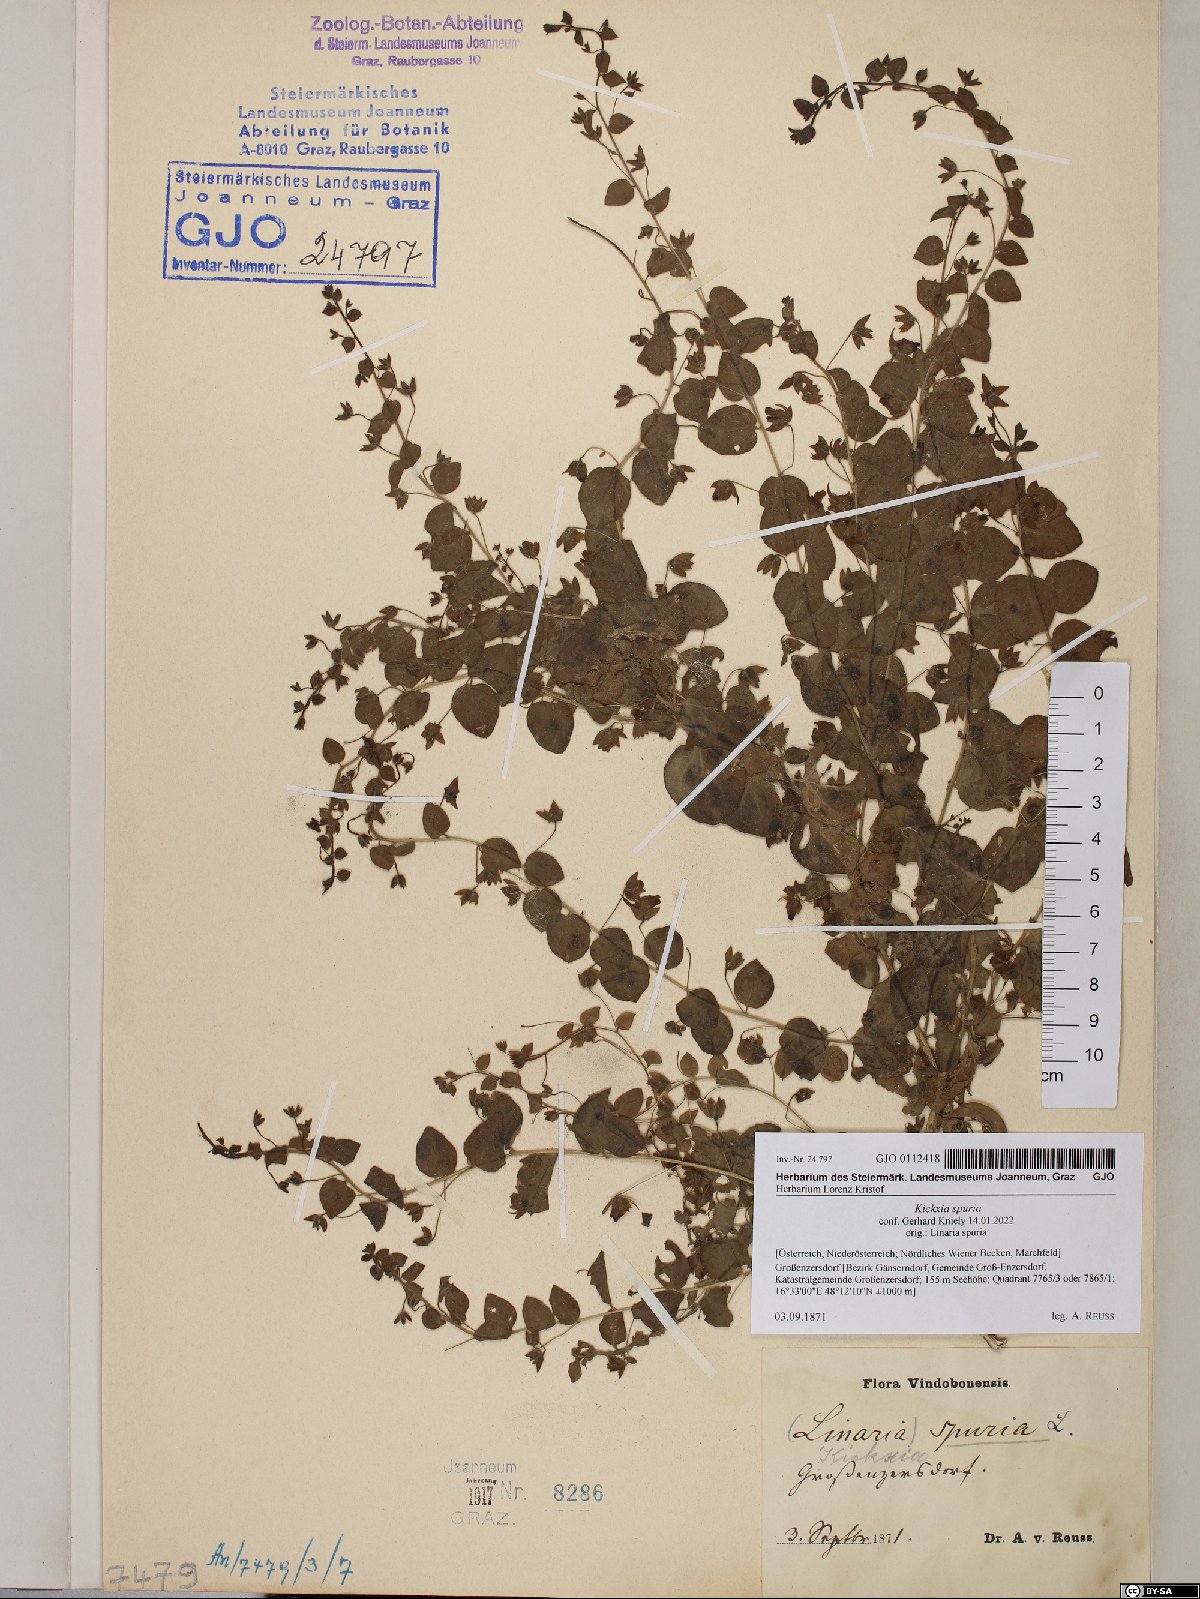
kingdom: Plantae
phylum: Tracheophyta
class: Magnoliopsida
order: Lamiales
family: Plantaginaceae
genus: Kickxia
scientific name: Kickxia spuria
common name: Round-leaved fluellen
